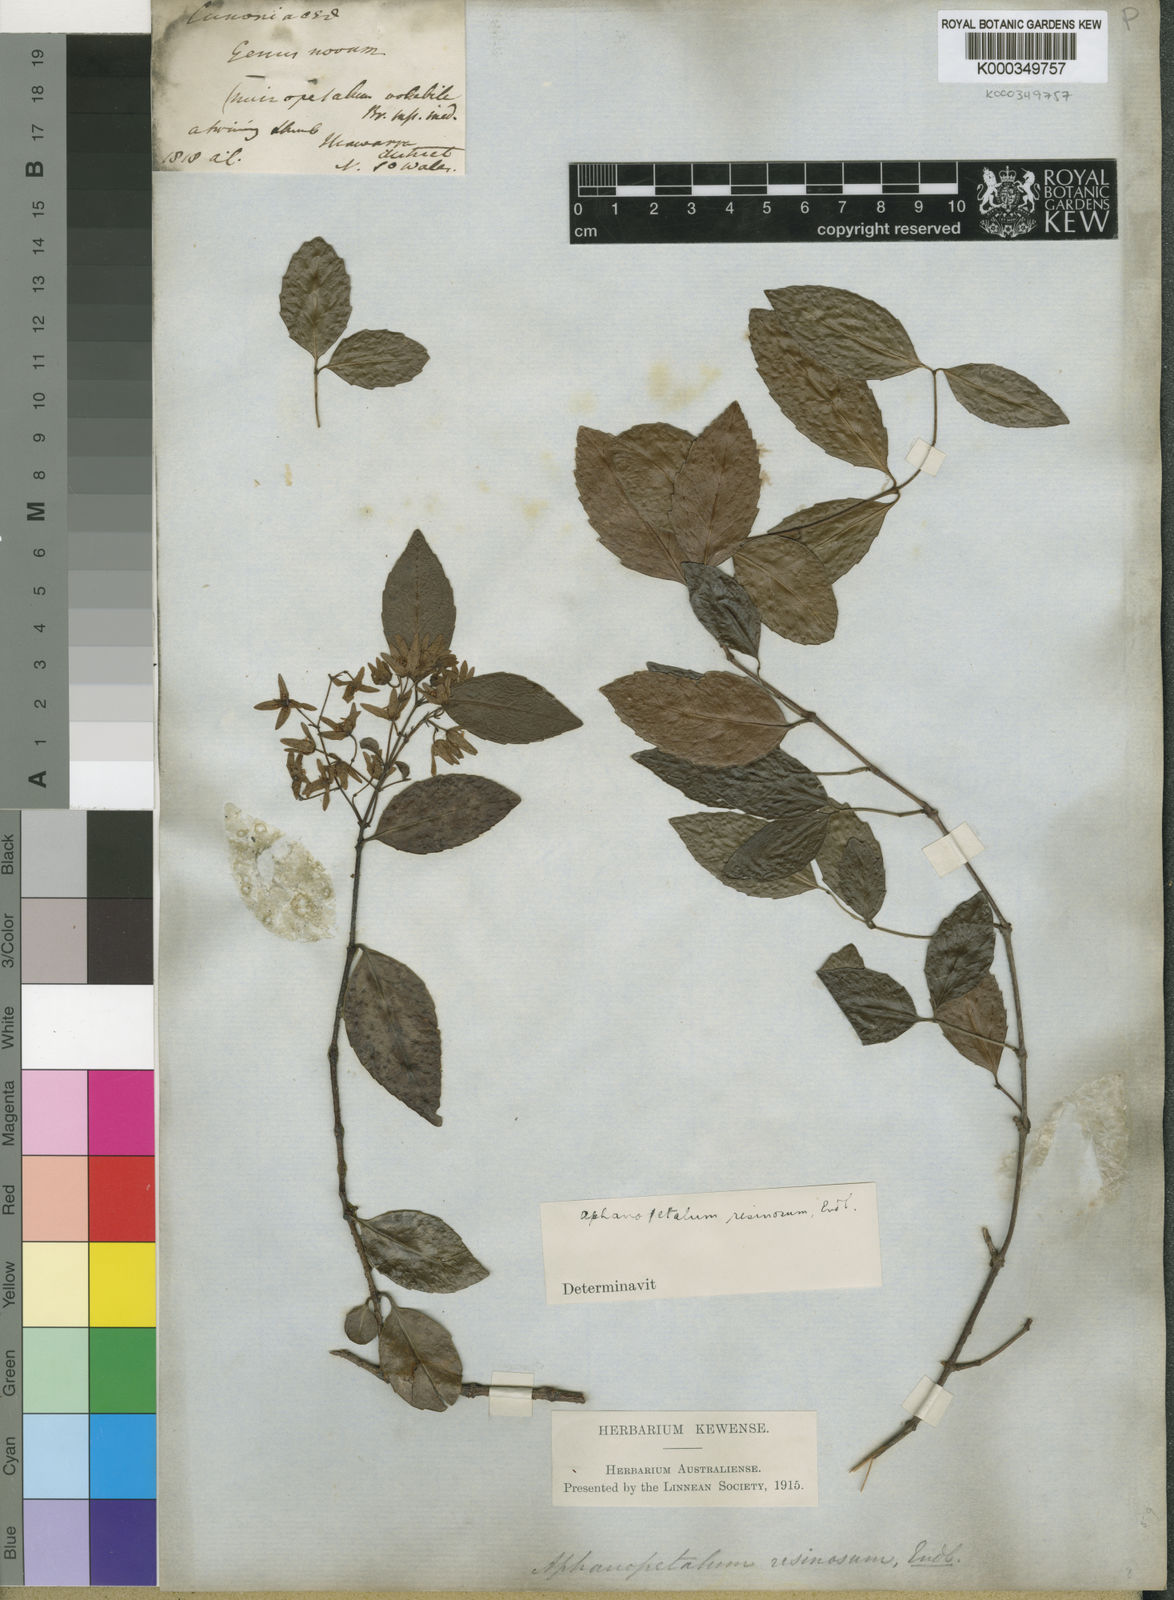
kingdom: Plantae
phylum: Tracheophyta
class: Magnoliopsida
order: Saxifragales
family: Aphanopetalaceae
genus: Aphanopetalum
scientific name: Aphanopetalum resinosum
